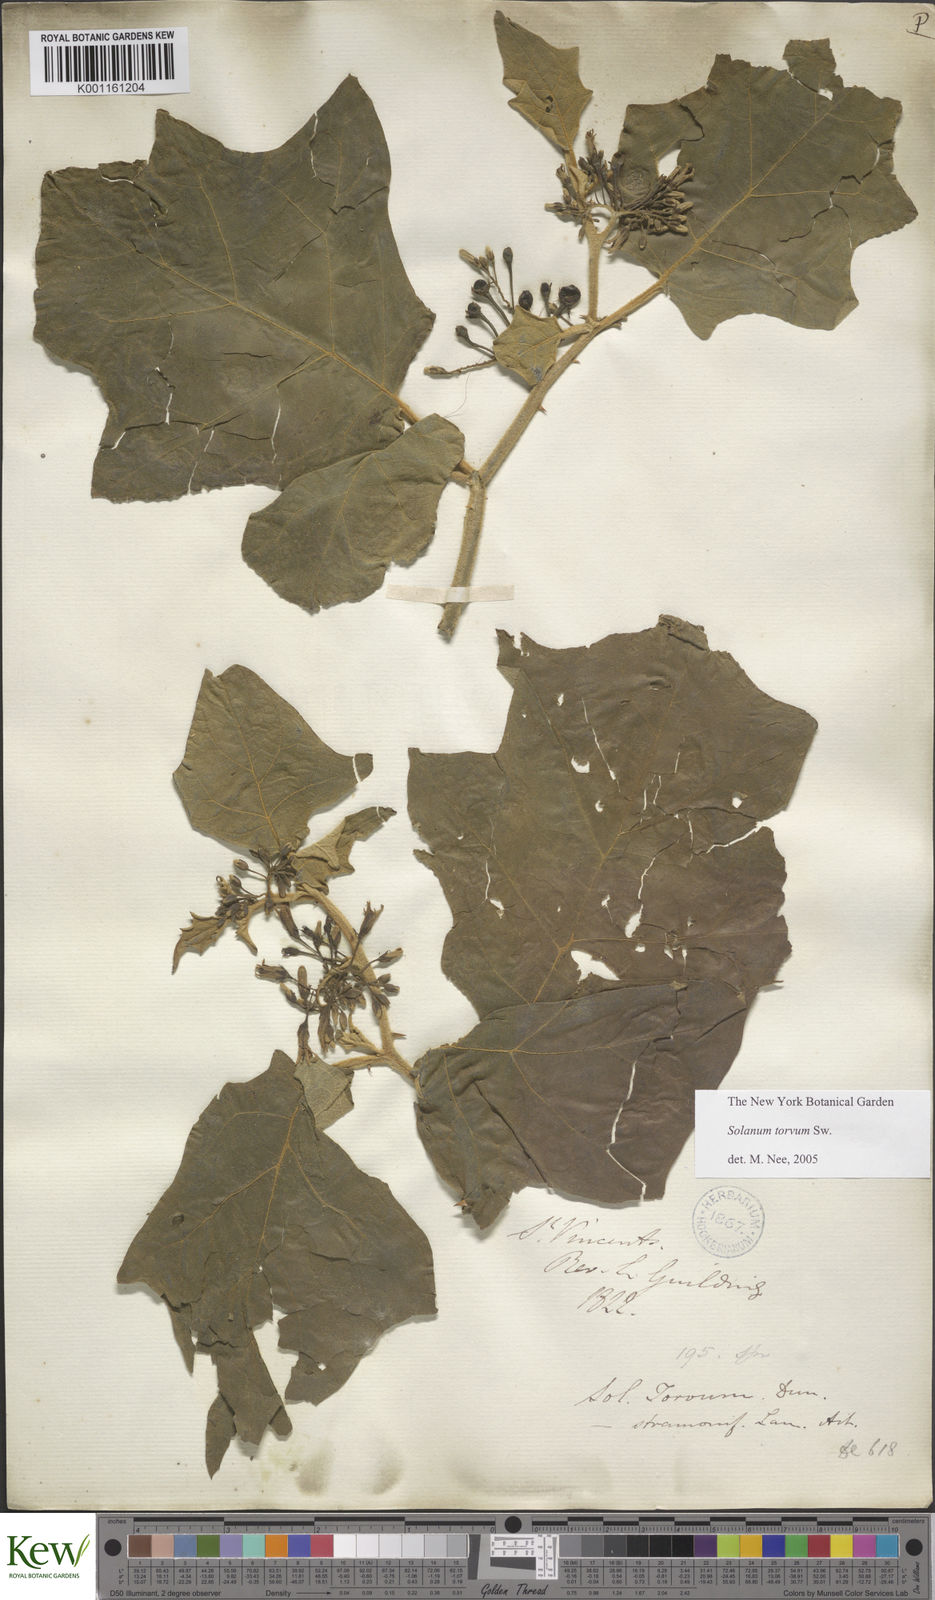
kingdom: Plantae
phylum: Tracheophyta
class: Magnoliopsida
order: Solanales
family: Solanaceae
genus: Solanum
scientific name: Solanum torvum
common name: Turkey berry
